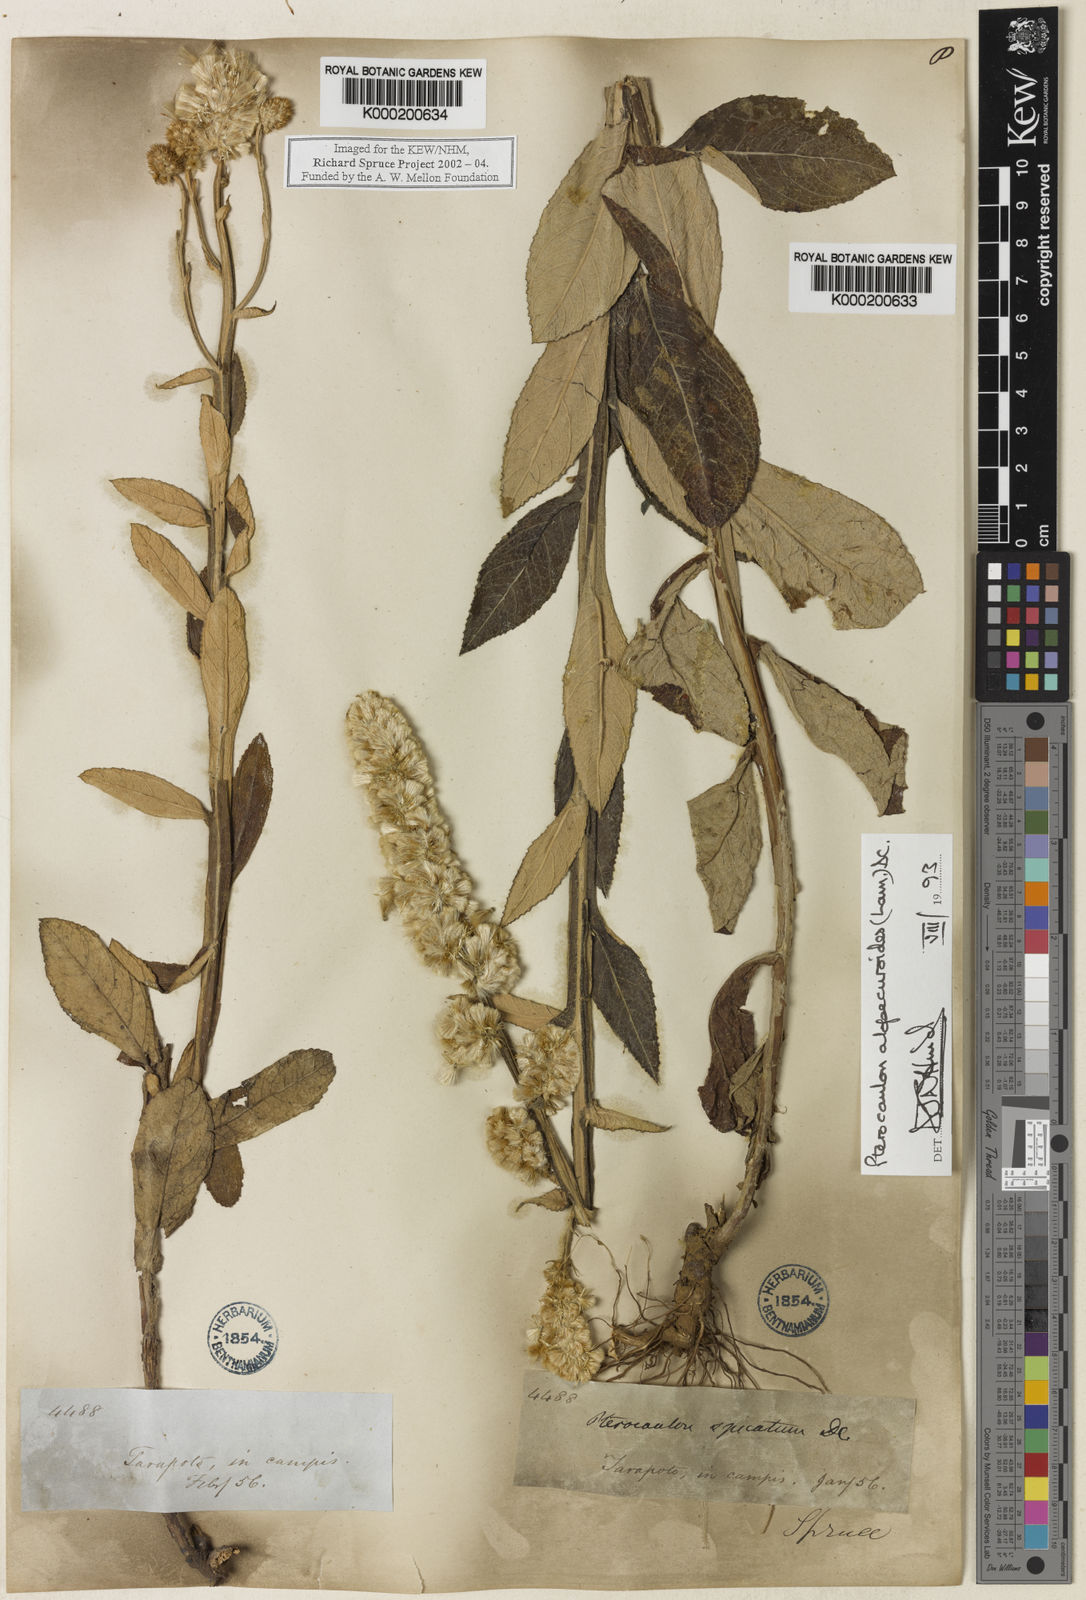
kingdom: Plantae
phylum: Tracheophyta
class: Magnoliopsida
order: Asterales
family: Asteraceae
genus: Pterocaulon
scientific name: Pterocaulon alopecuroides
